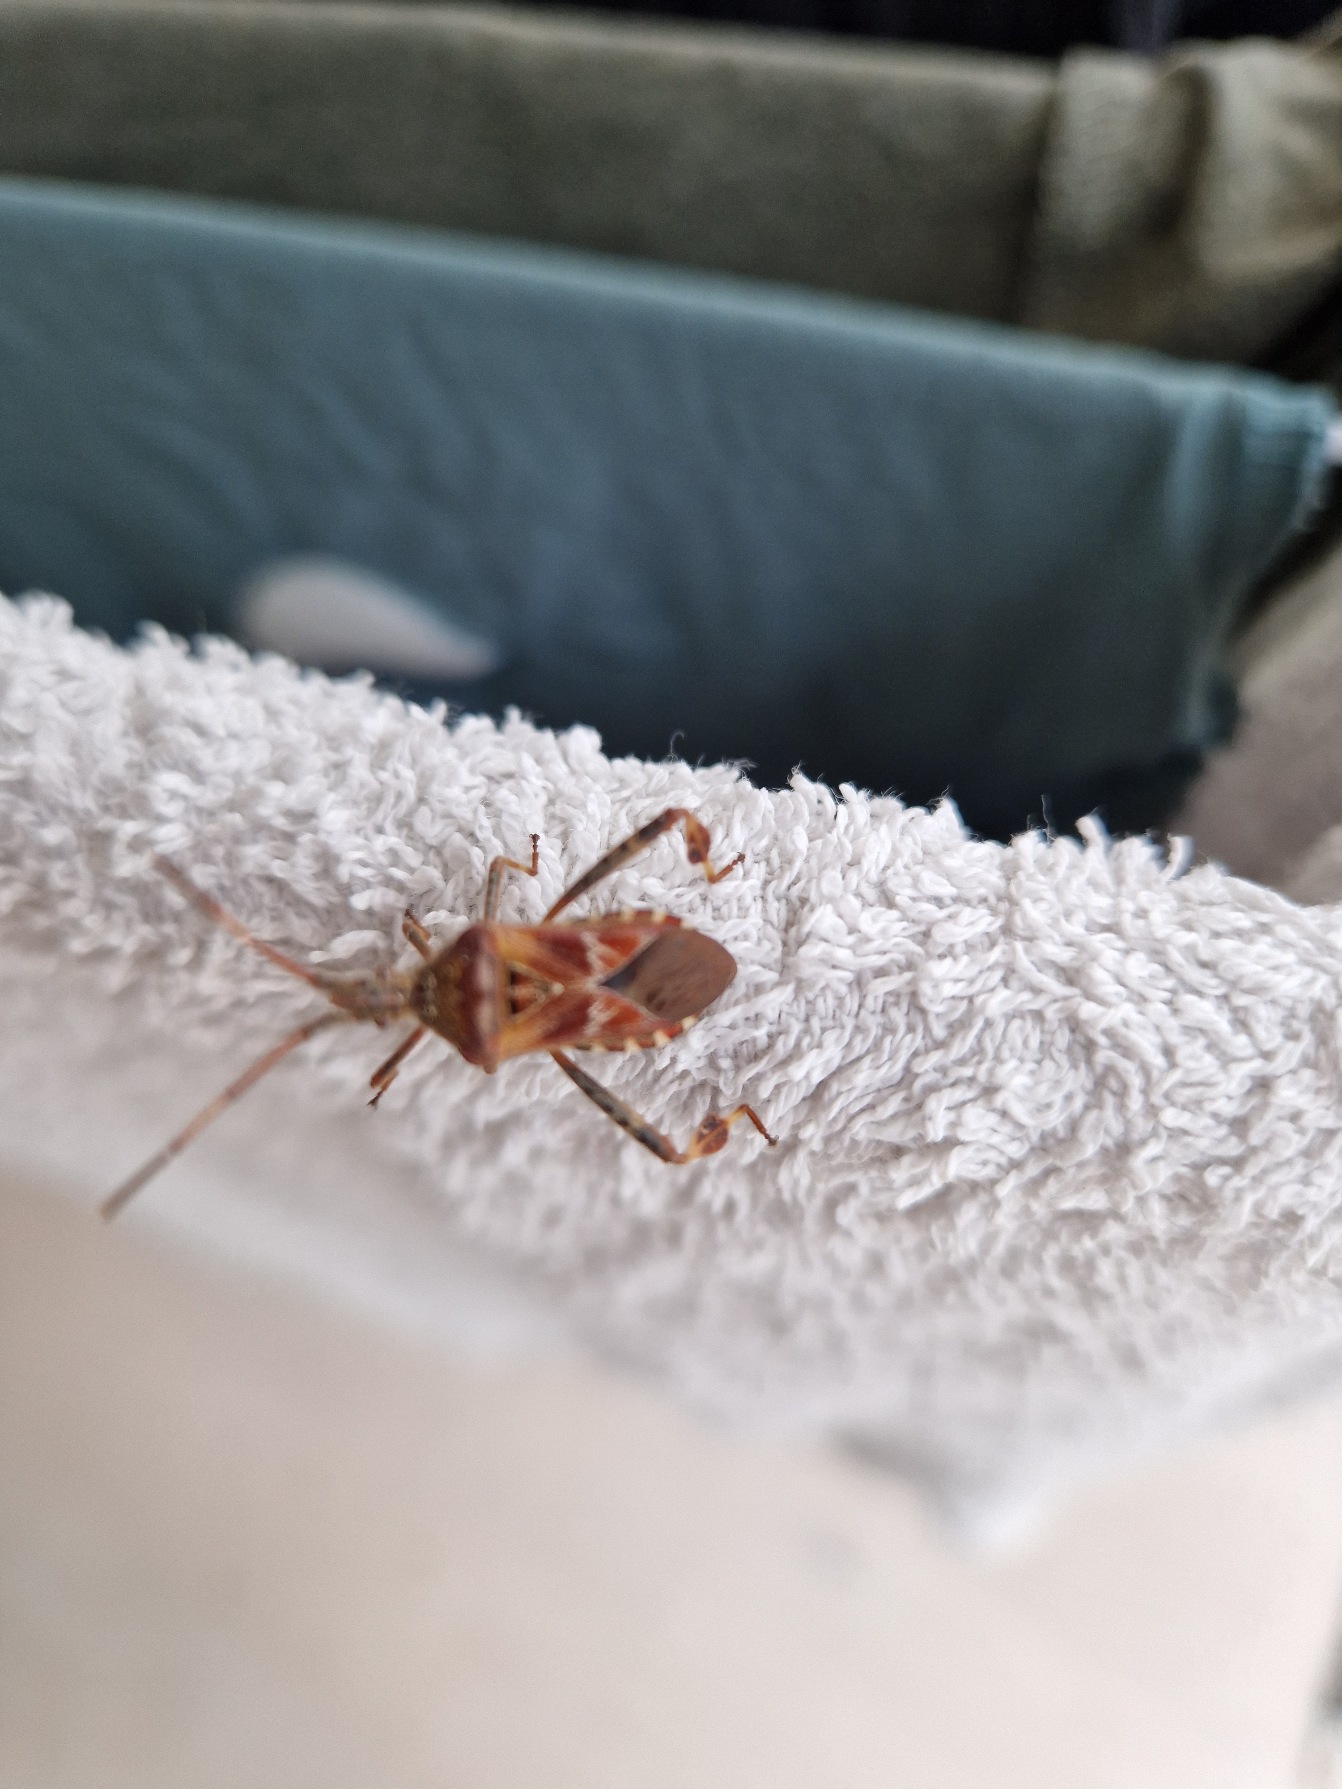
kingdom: Animalia
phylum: Arthropoda
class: Insecta
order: Hemiptera
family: Coreidae
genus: Leptoglossus
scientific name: Leptoglossus occidentalis
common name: Amerikansk fyrretæge
